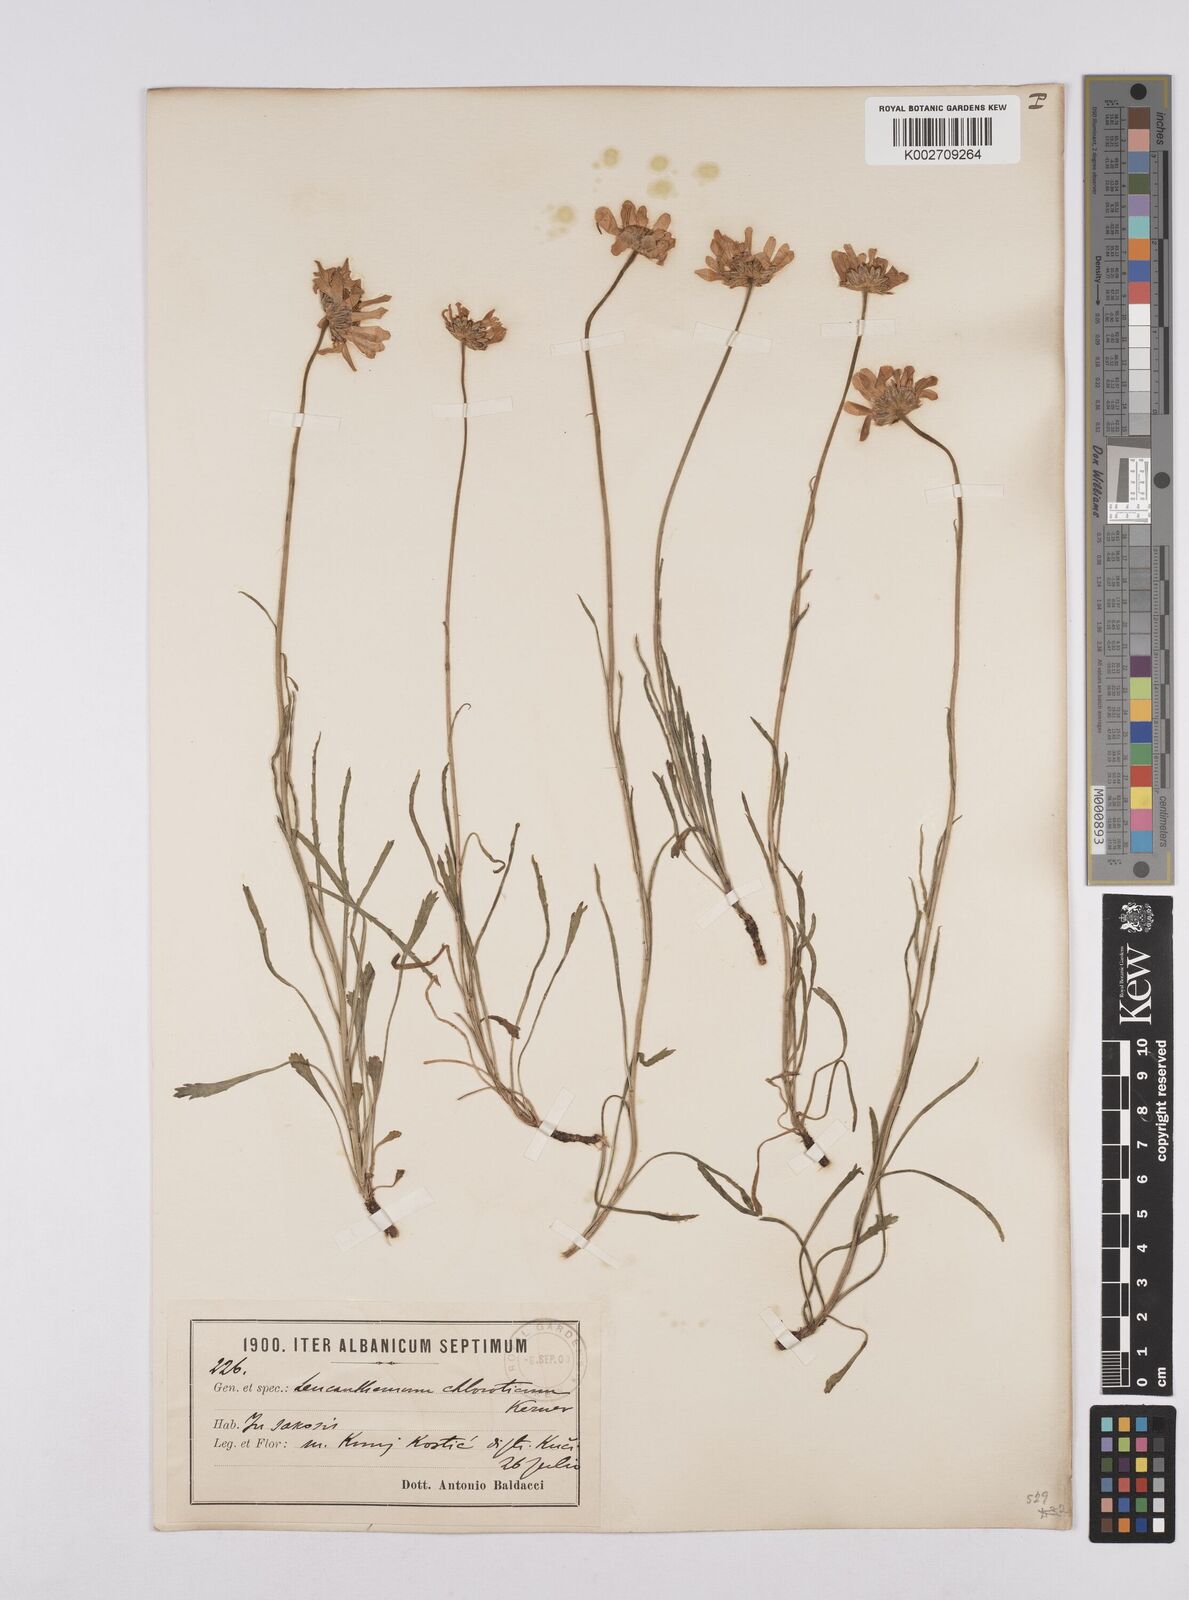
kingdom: Plantae
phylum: Tracheophyta
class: Magnoliopsida
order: Asterales
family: Asteraceae
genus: Leucanthemum
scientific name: Leucanthemum chloroticum
